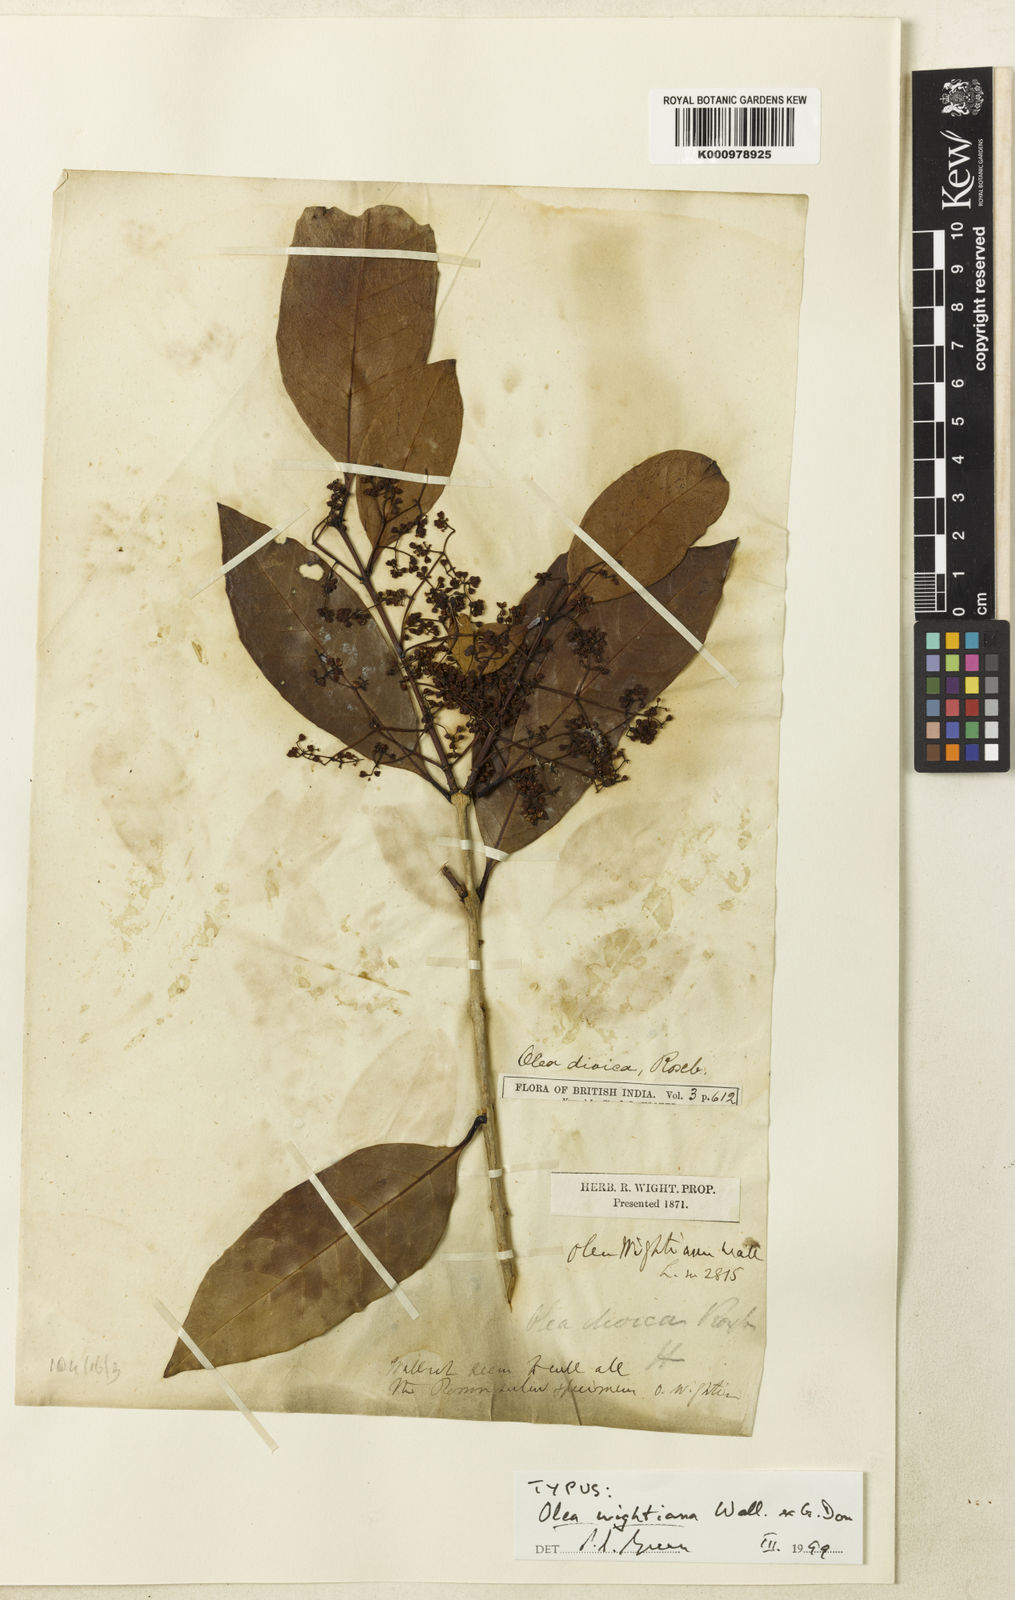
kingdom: Plantae
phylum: Tracheophyta
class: Magnoliopsida
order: Lamiales
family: Oleaceae
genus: Tetrapilus
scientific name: Tetrapilus wightianus
